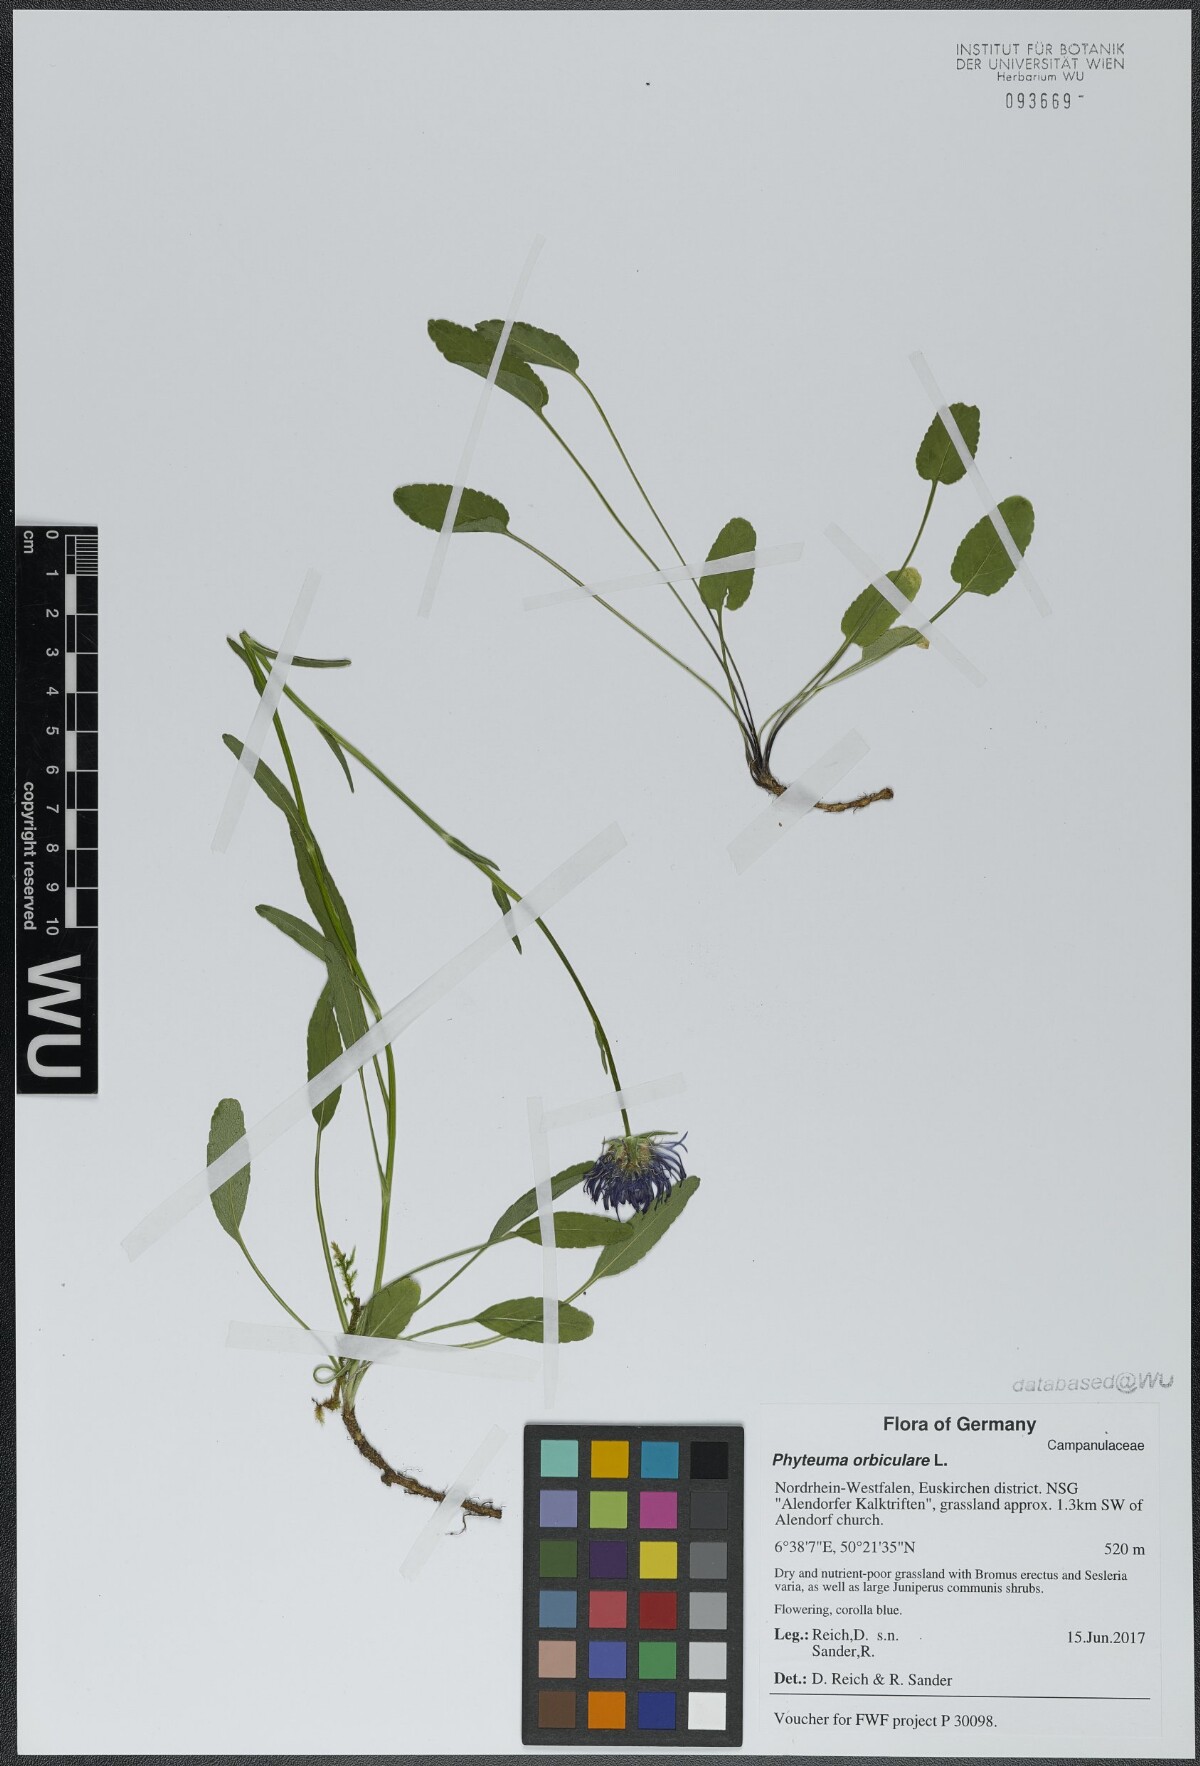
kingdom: Plantae
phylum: Tracheophyta
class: Magnoliopsida
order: Asterales
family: Campanulaceae
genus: Phyteuma
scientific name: Phyteuma orbiculare
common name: Round-headed rampion
